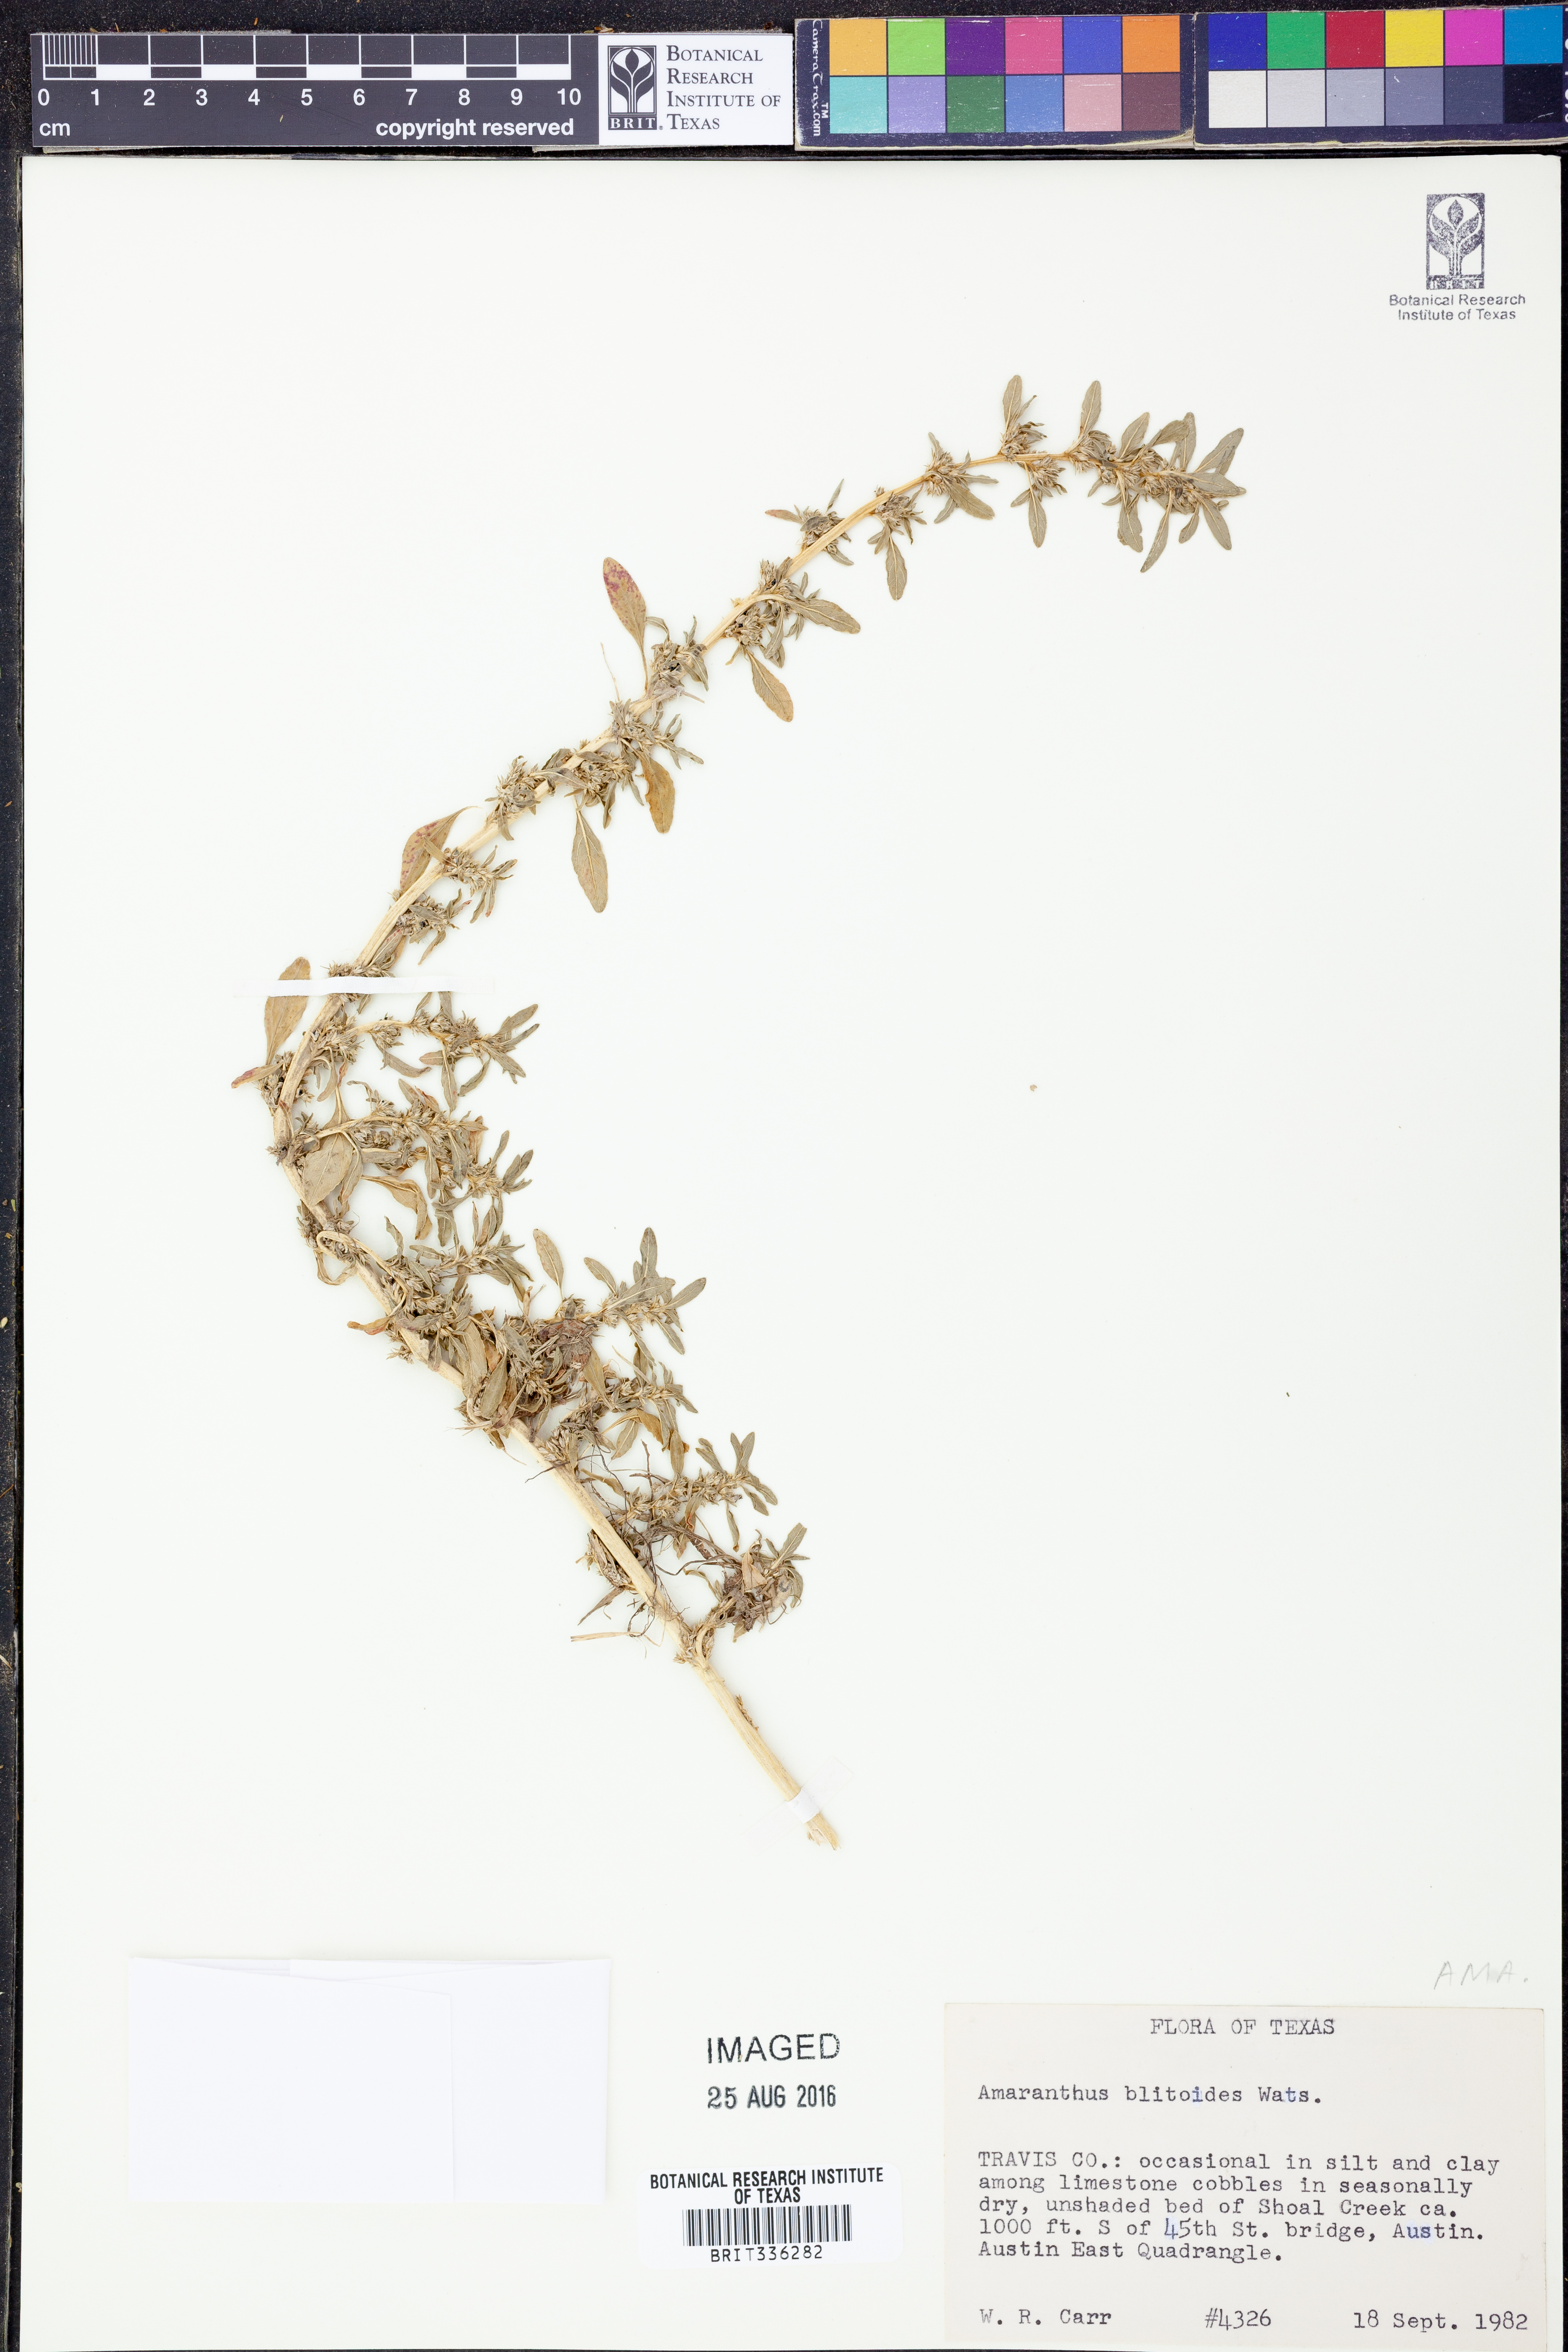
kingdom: Plantae
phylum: Tracheophyta
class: Magnoliopsida
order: Caryophyllales
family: Amaranthaceae
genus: Amaranthus
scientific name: Amaranthus blitoides
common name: Prostrate pigweed
